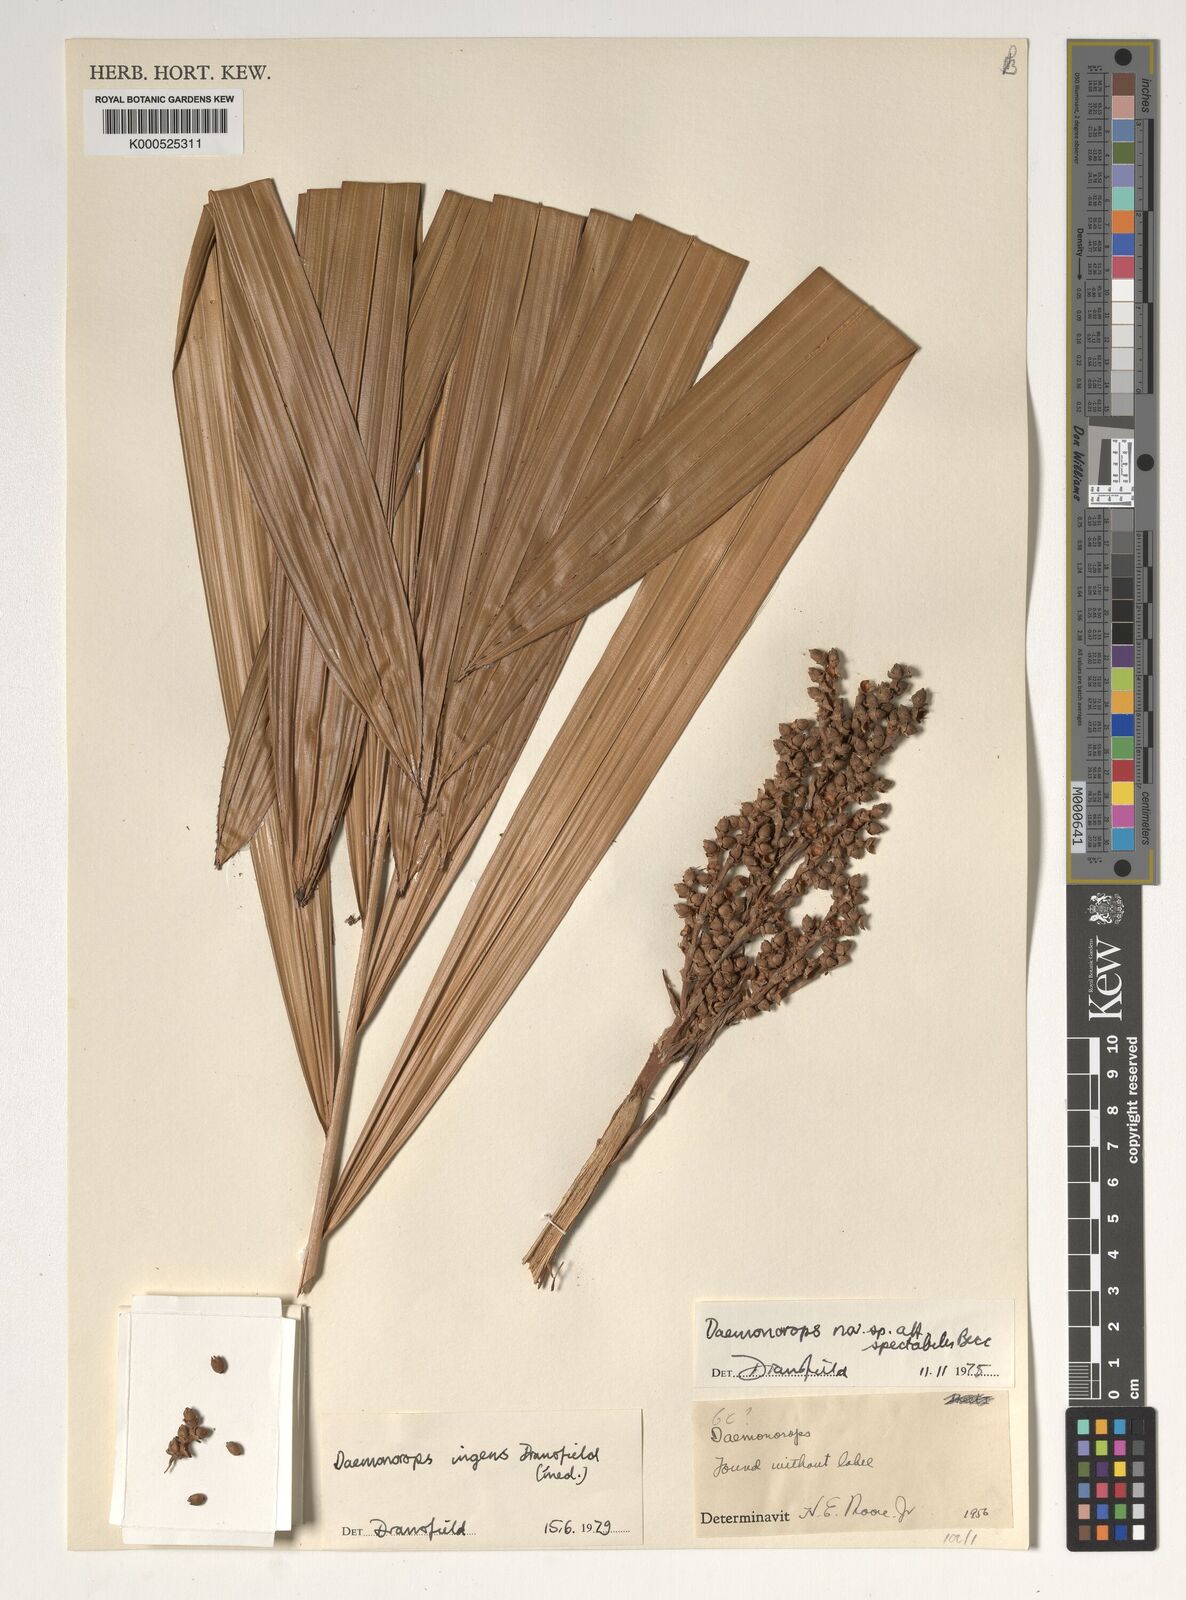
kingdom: Plantae
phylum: Tracheophyta
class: Liliopsida
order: Arecales
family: Arecaceae
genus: Calamus
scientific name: Calamus ingens
